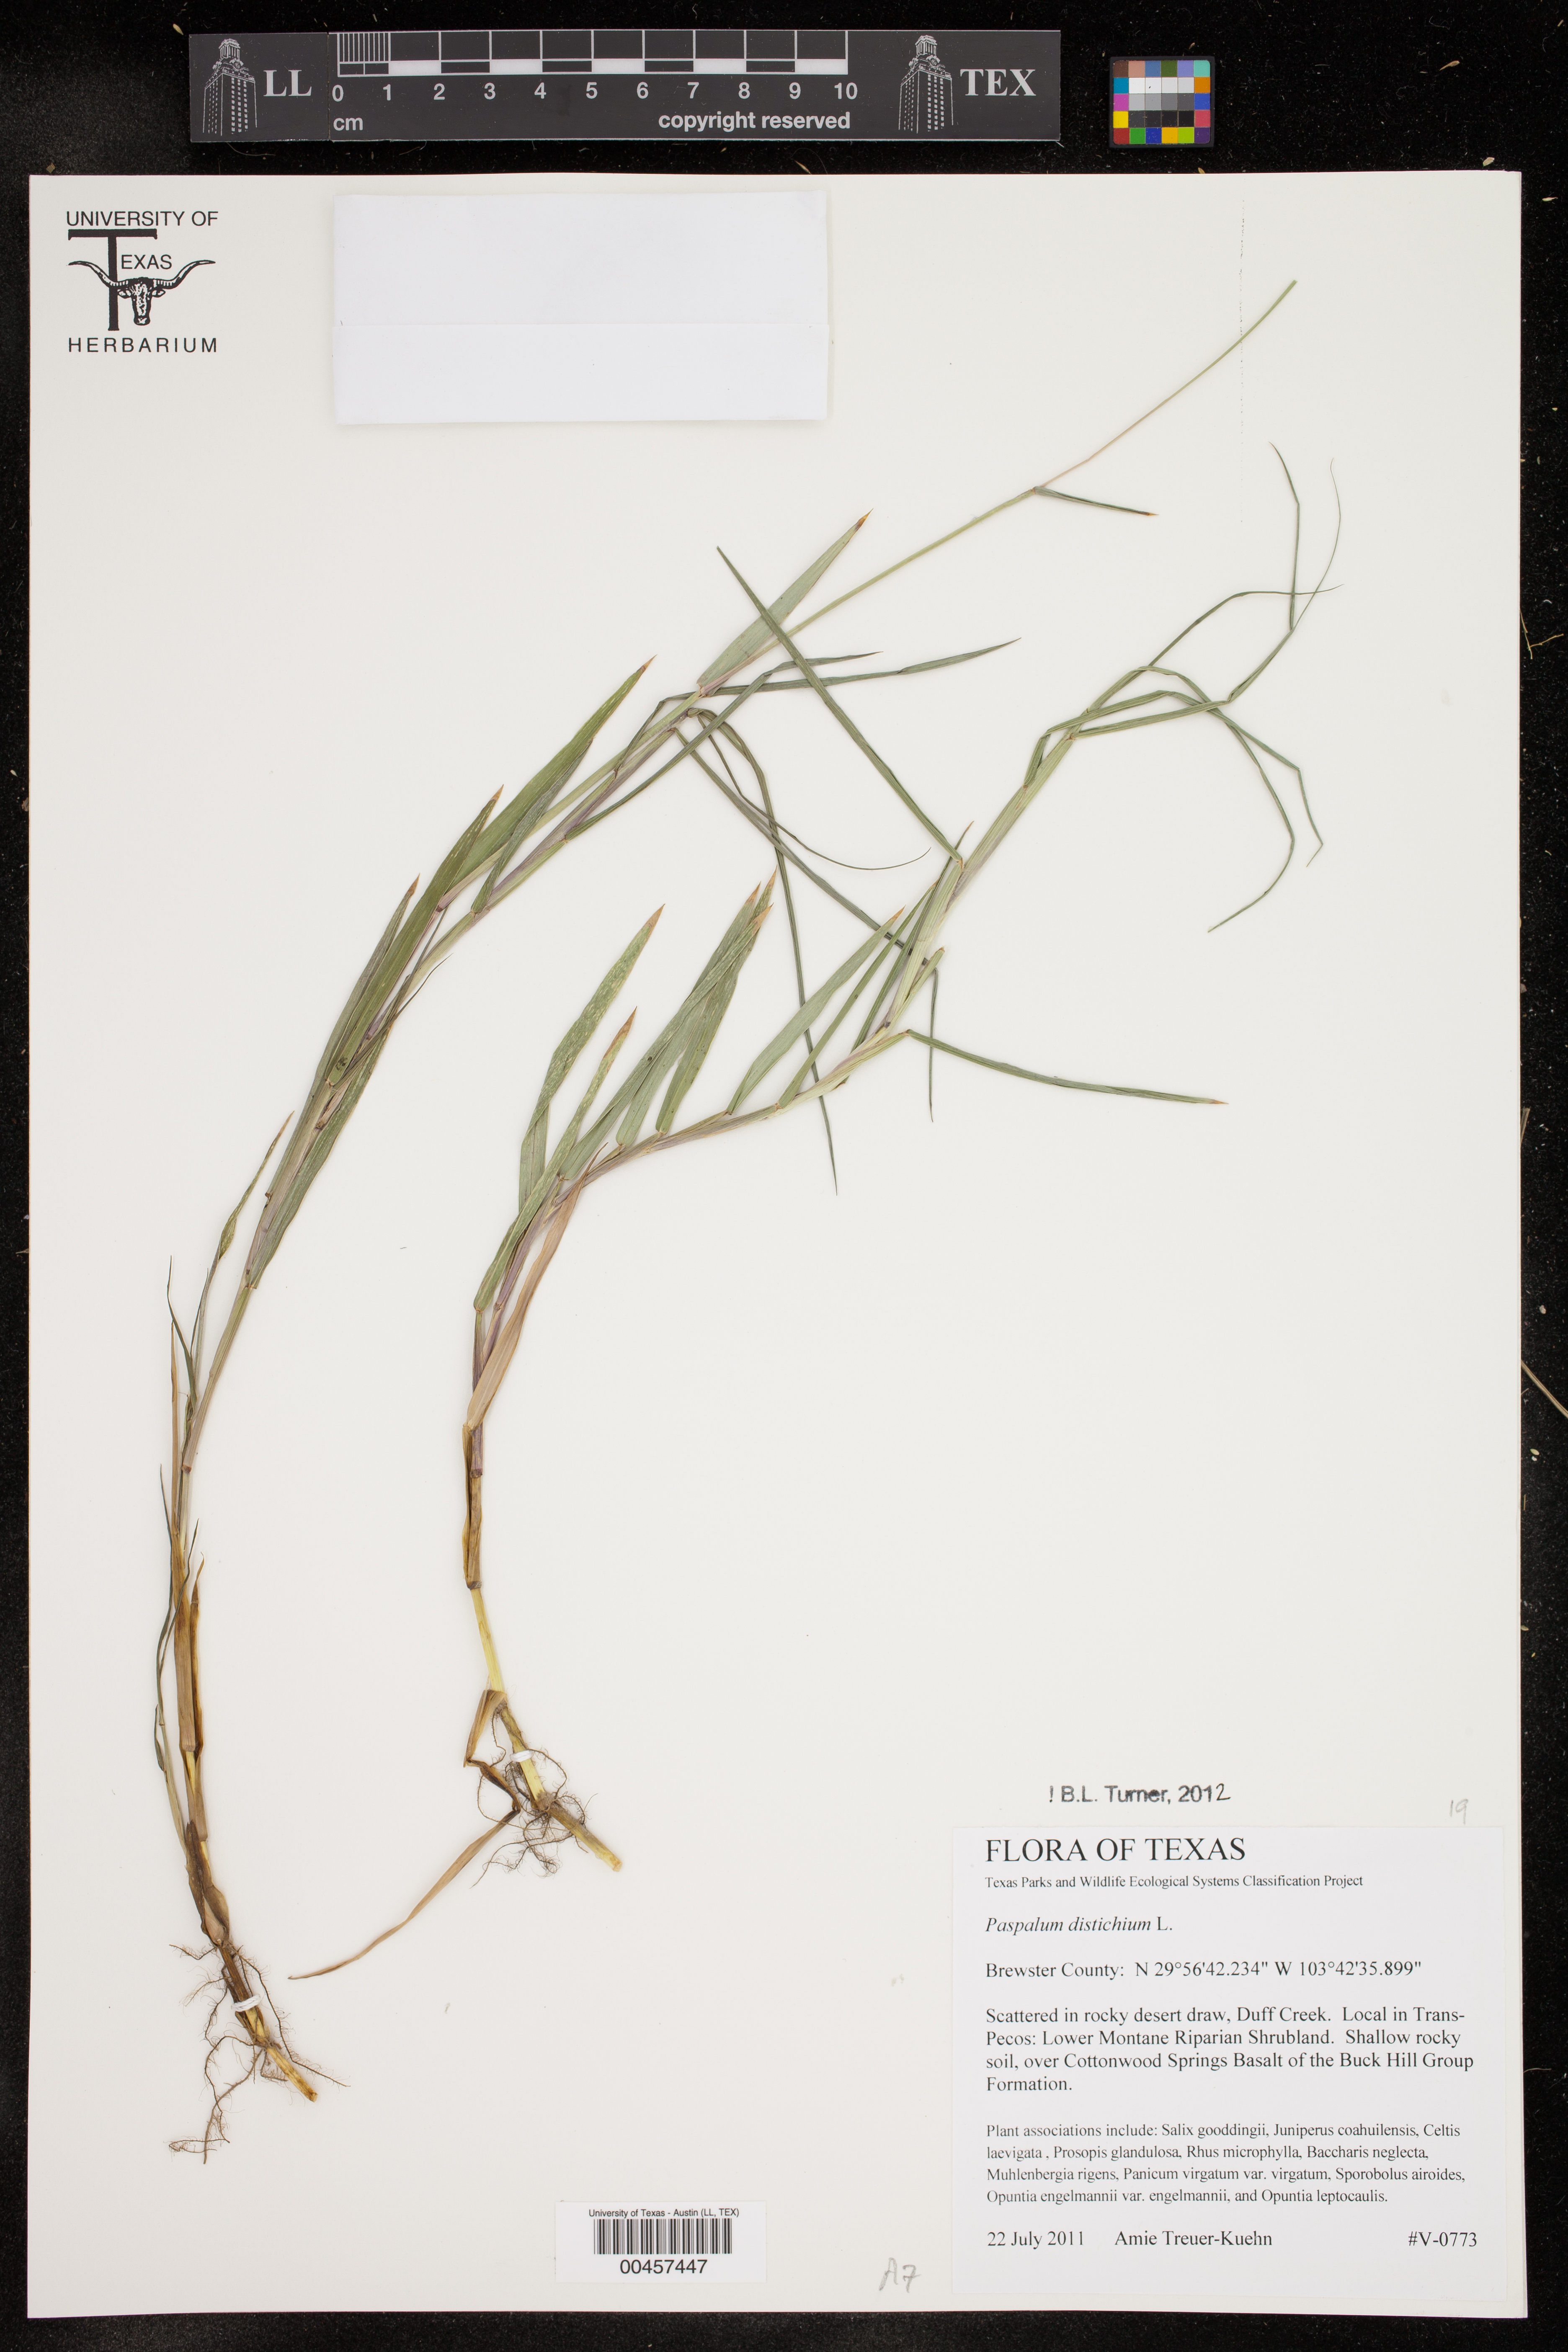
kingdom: Plantae
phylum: Tracheophyta
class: Liliopsida
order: Poales
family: Poaceae
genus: Paspalum
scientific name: Paspalum distichum
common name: Knotgrass
